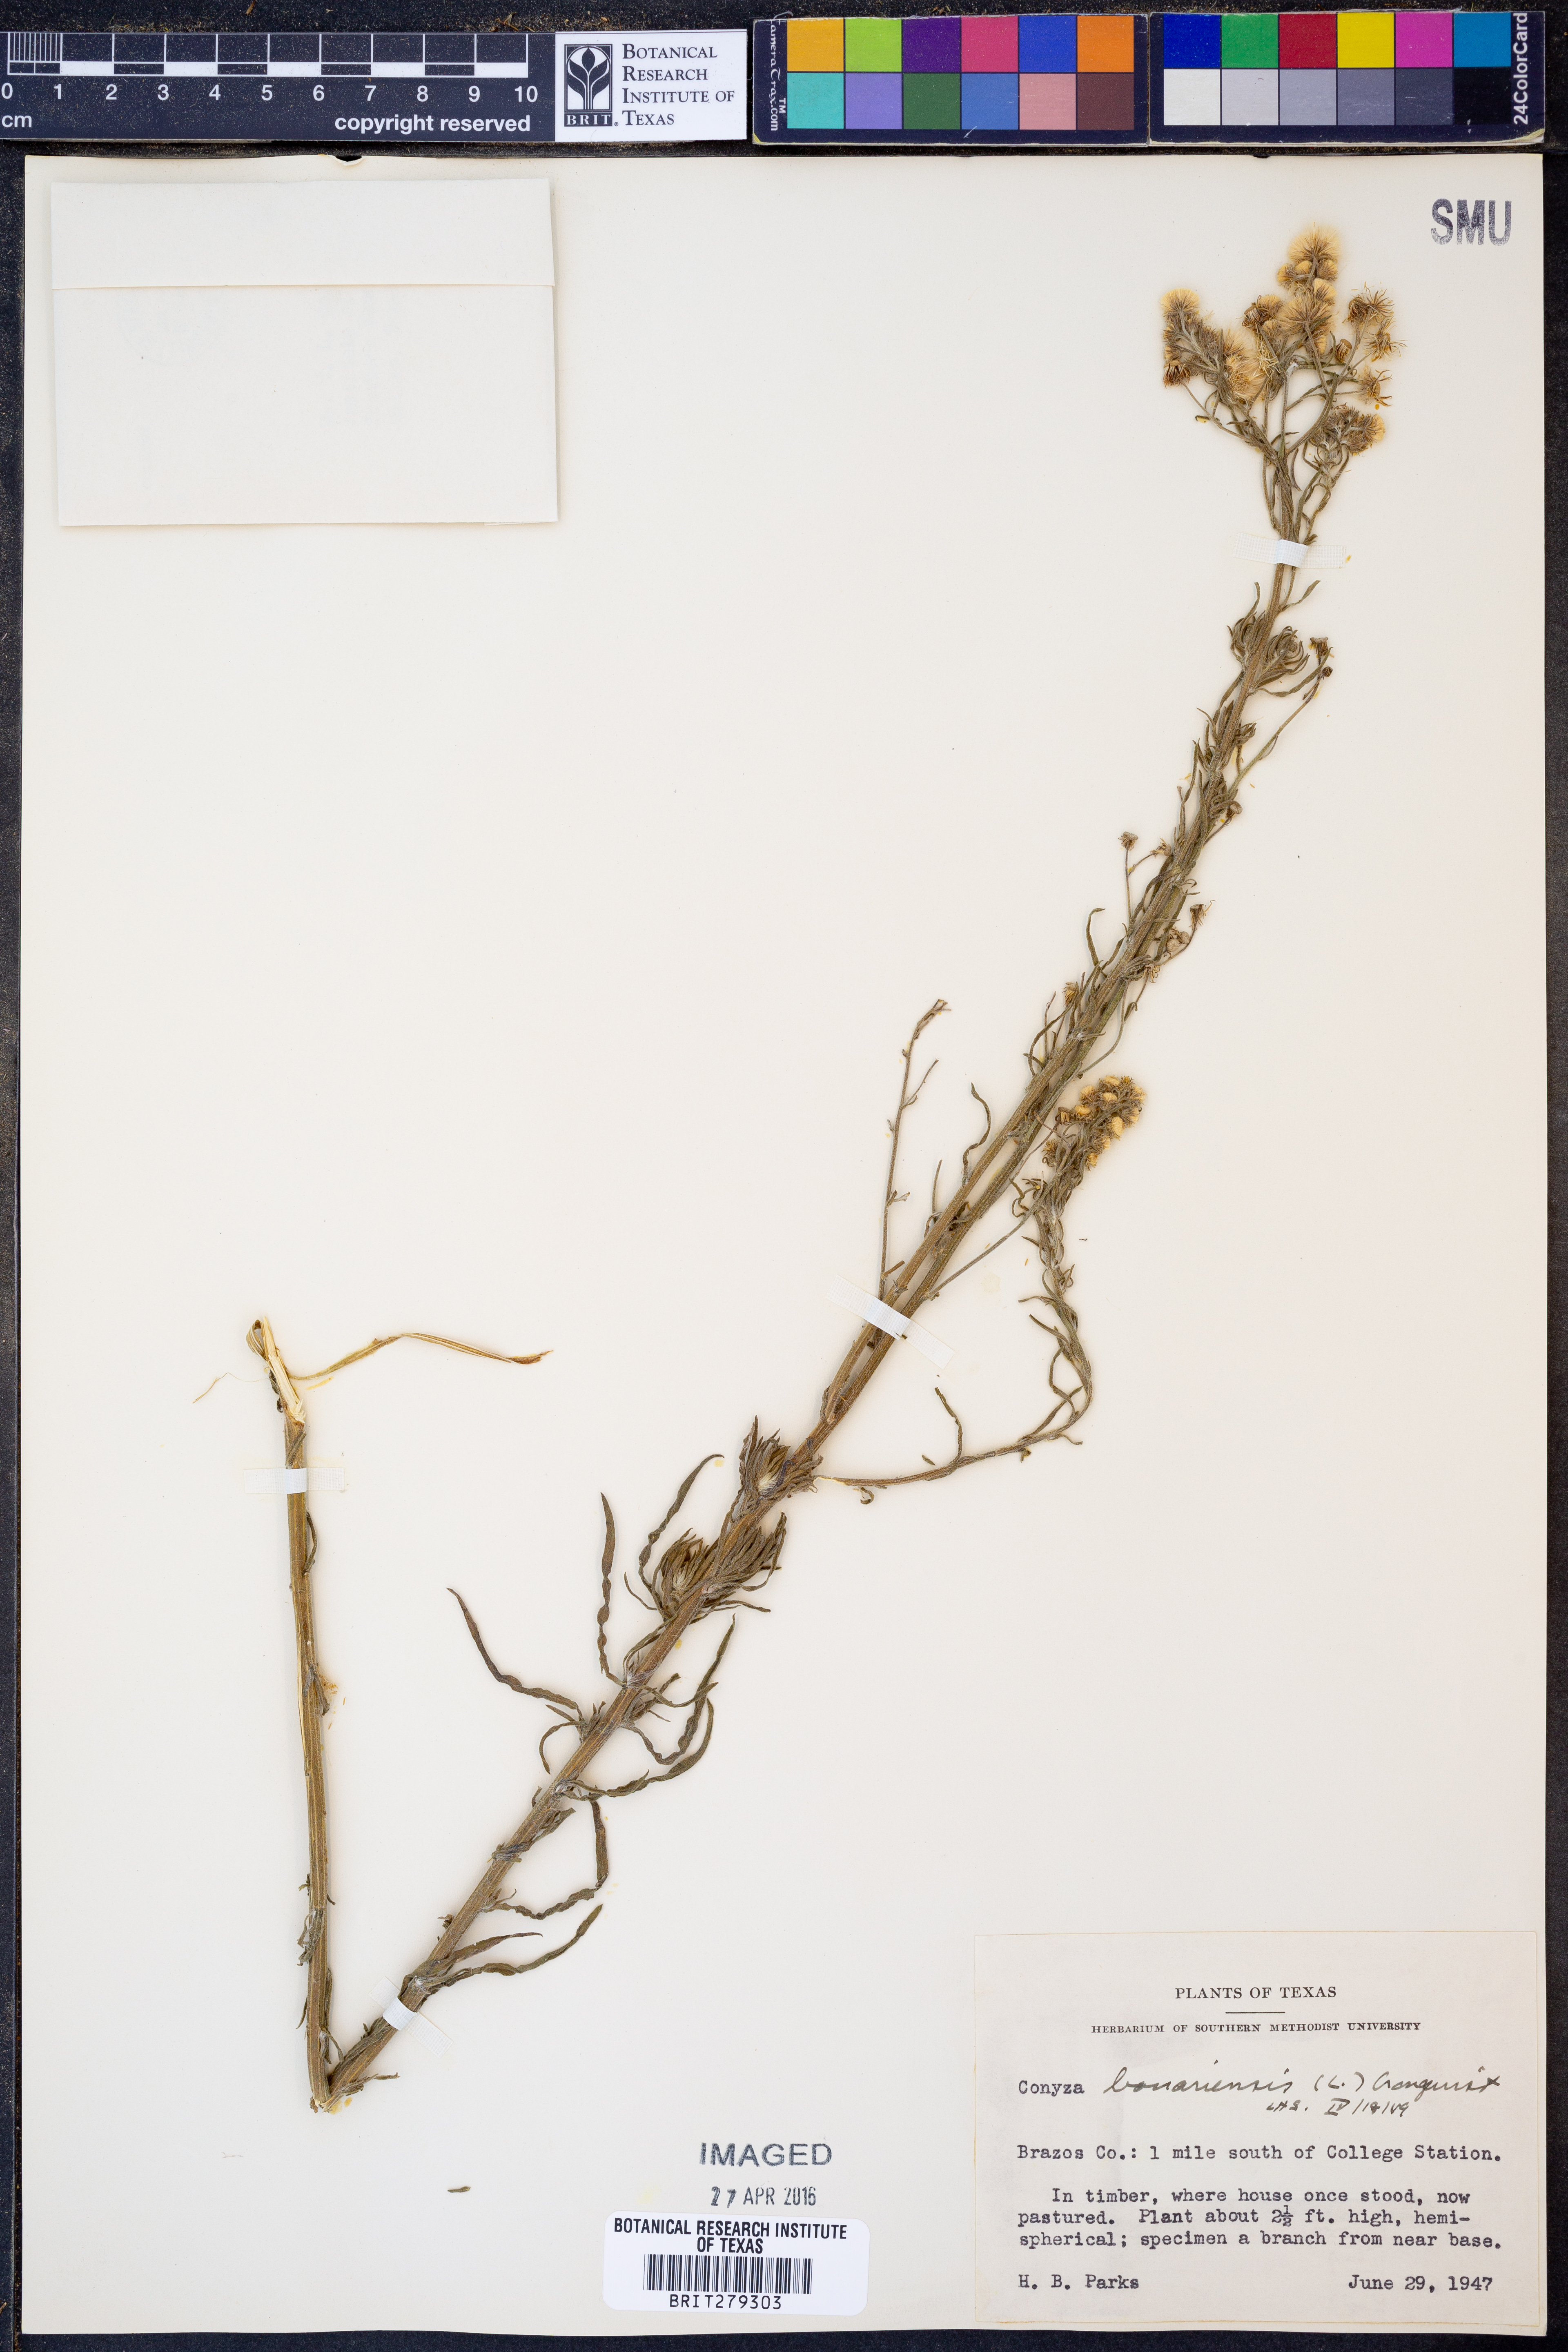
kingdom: Plantae
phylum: Tracheophyta
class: Magnoliopsida
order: Asterales
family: Asteraceae
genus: Erigeron
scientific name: Erigeron bonariensis
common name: Argentine fleabane
